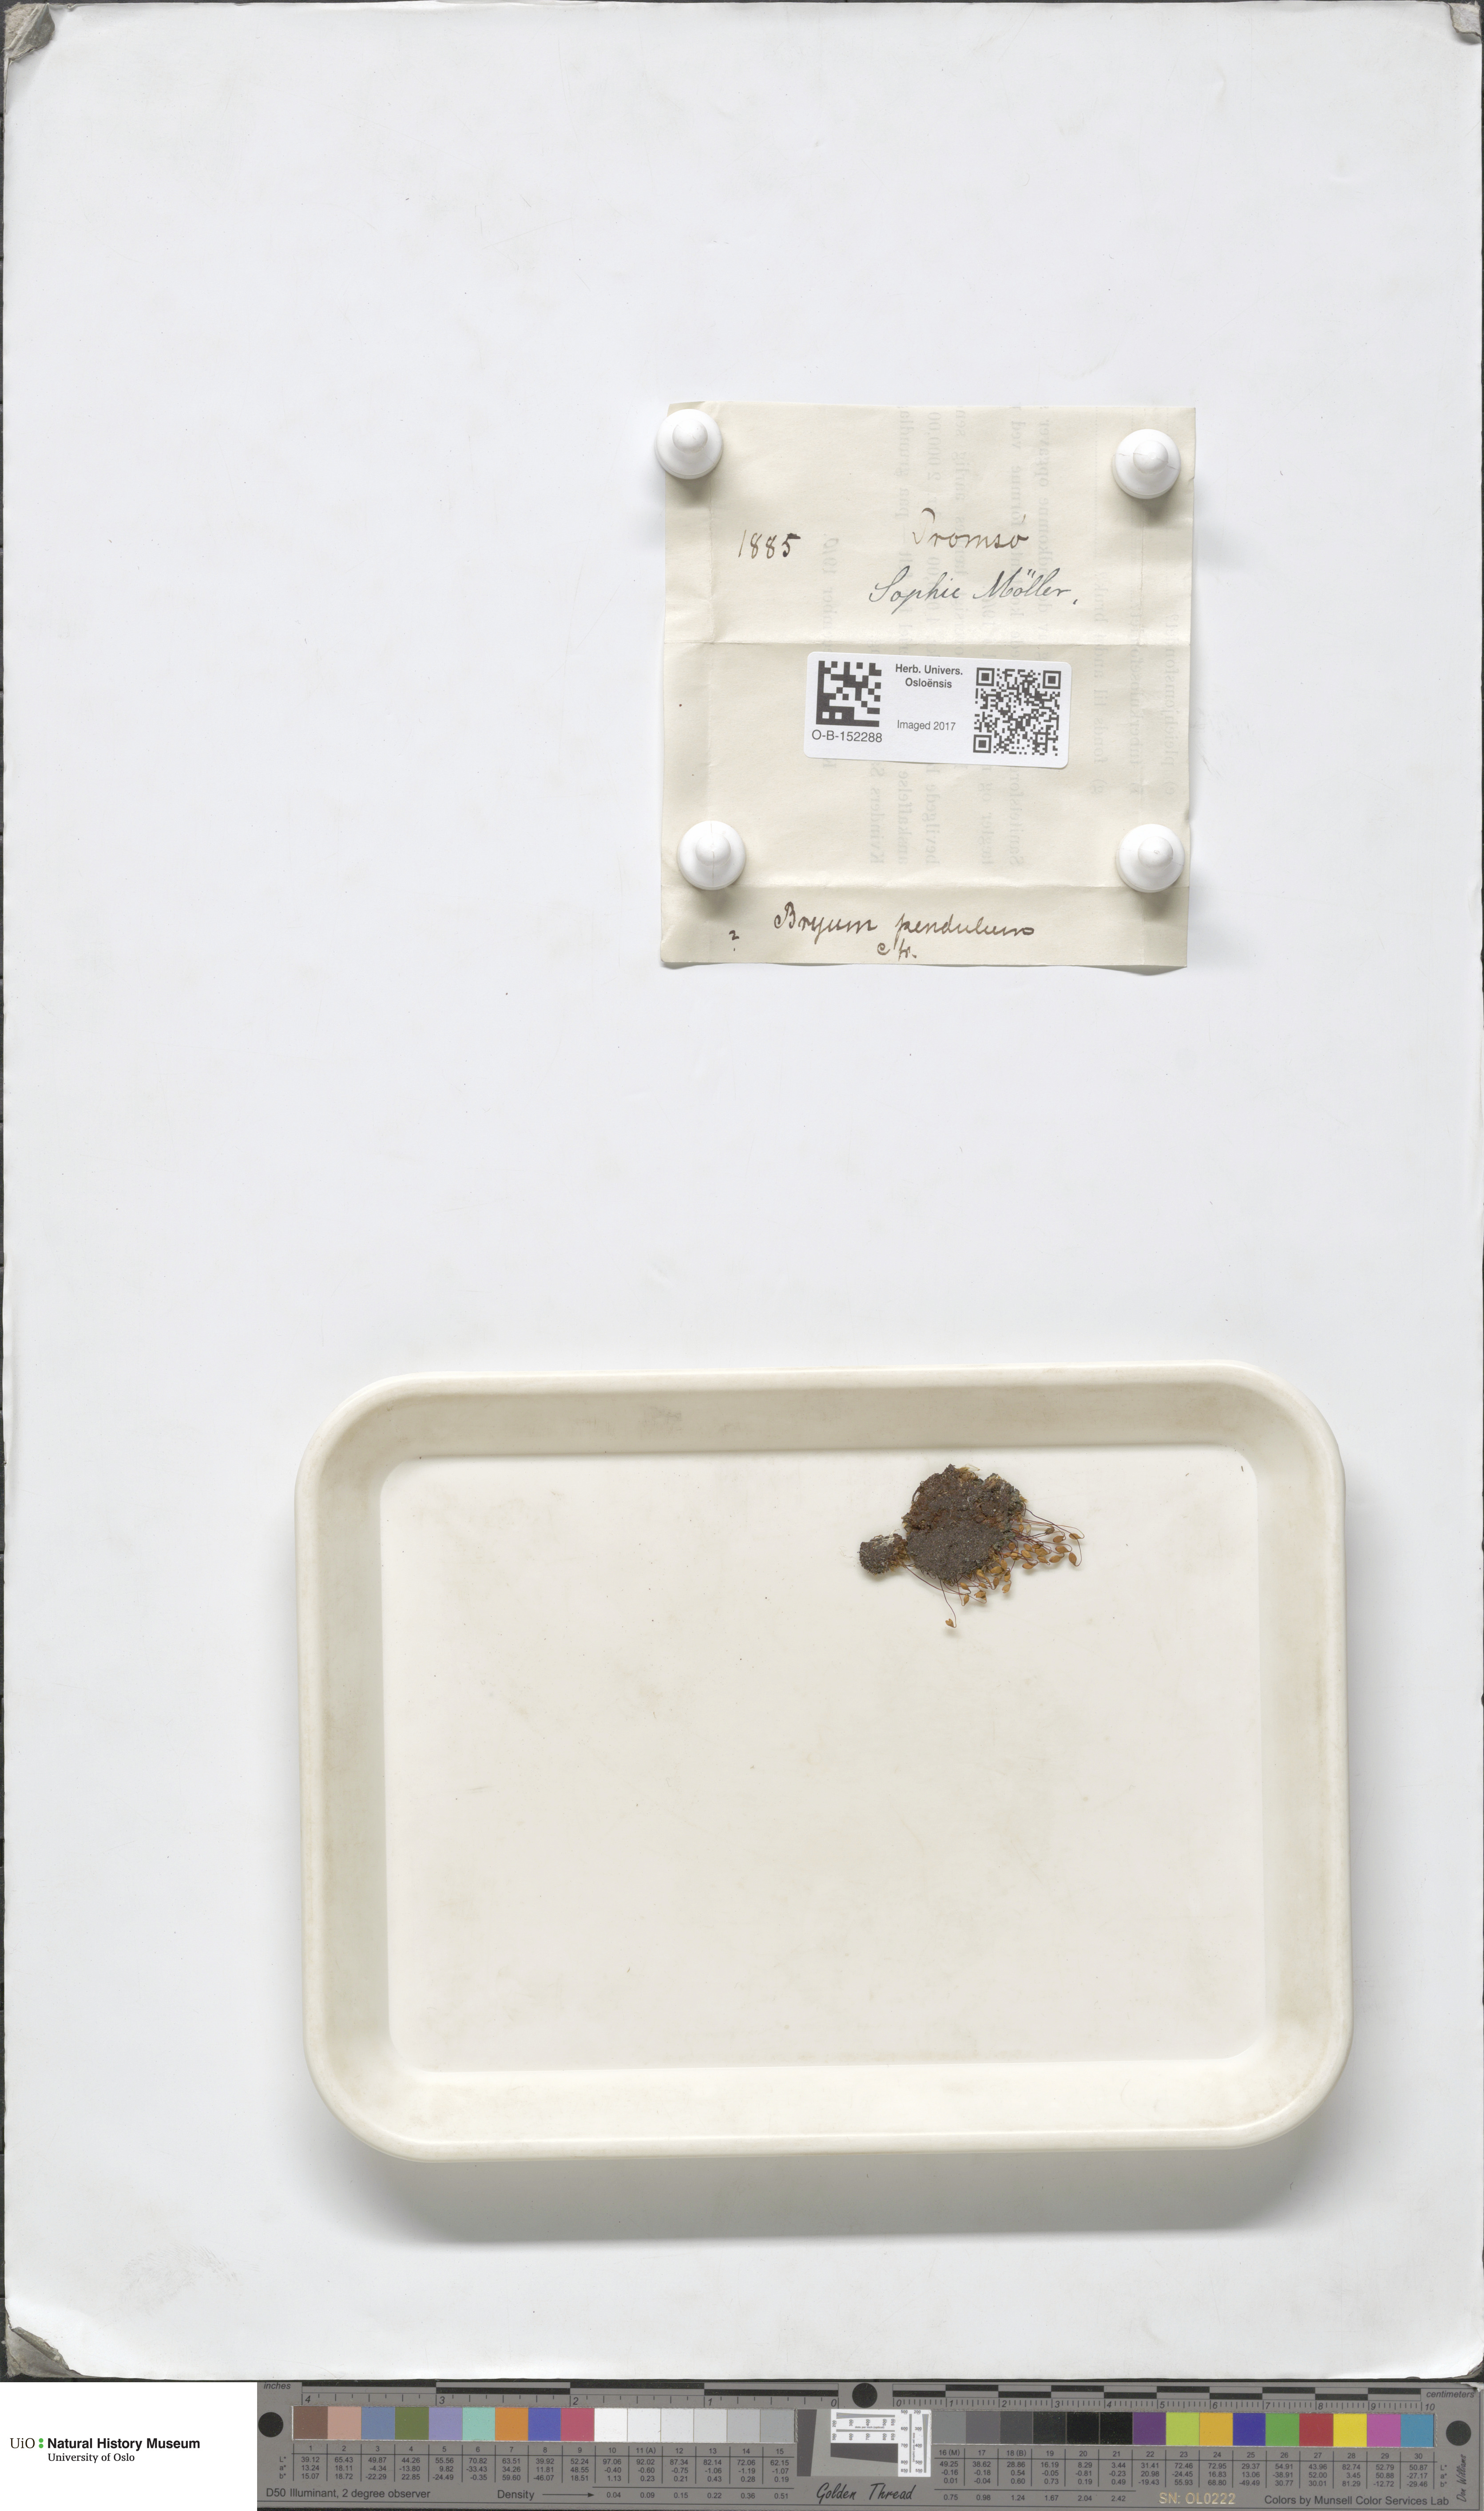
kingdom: Plantae
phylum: Bryophyta
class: Bryopsida
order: Bryales
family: Bryaceae
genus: Ptychostomum
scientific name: Ptychostomum compactum
